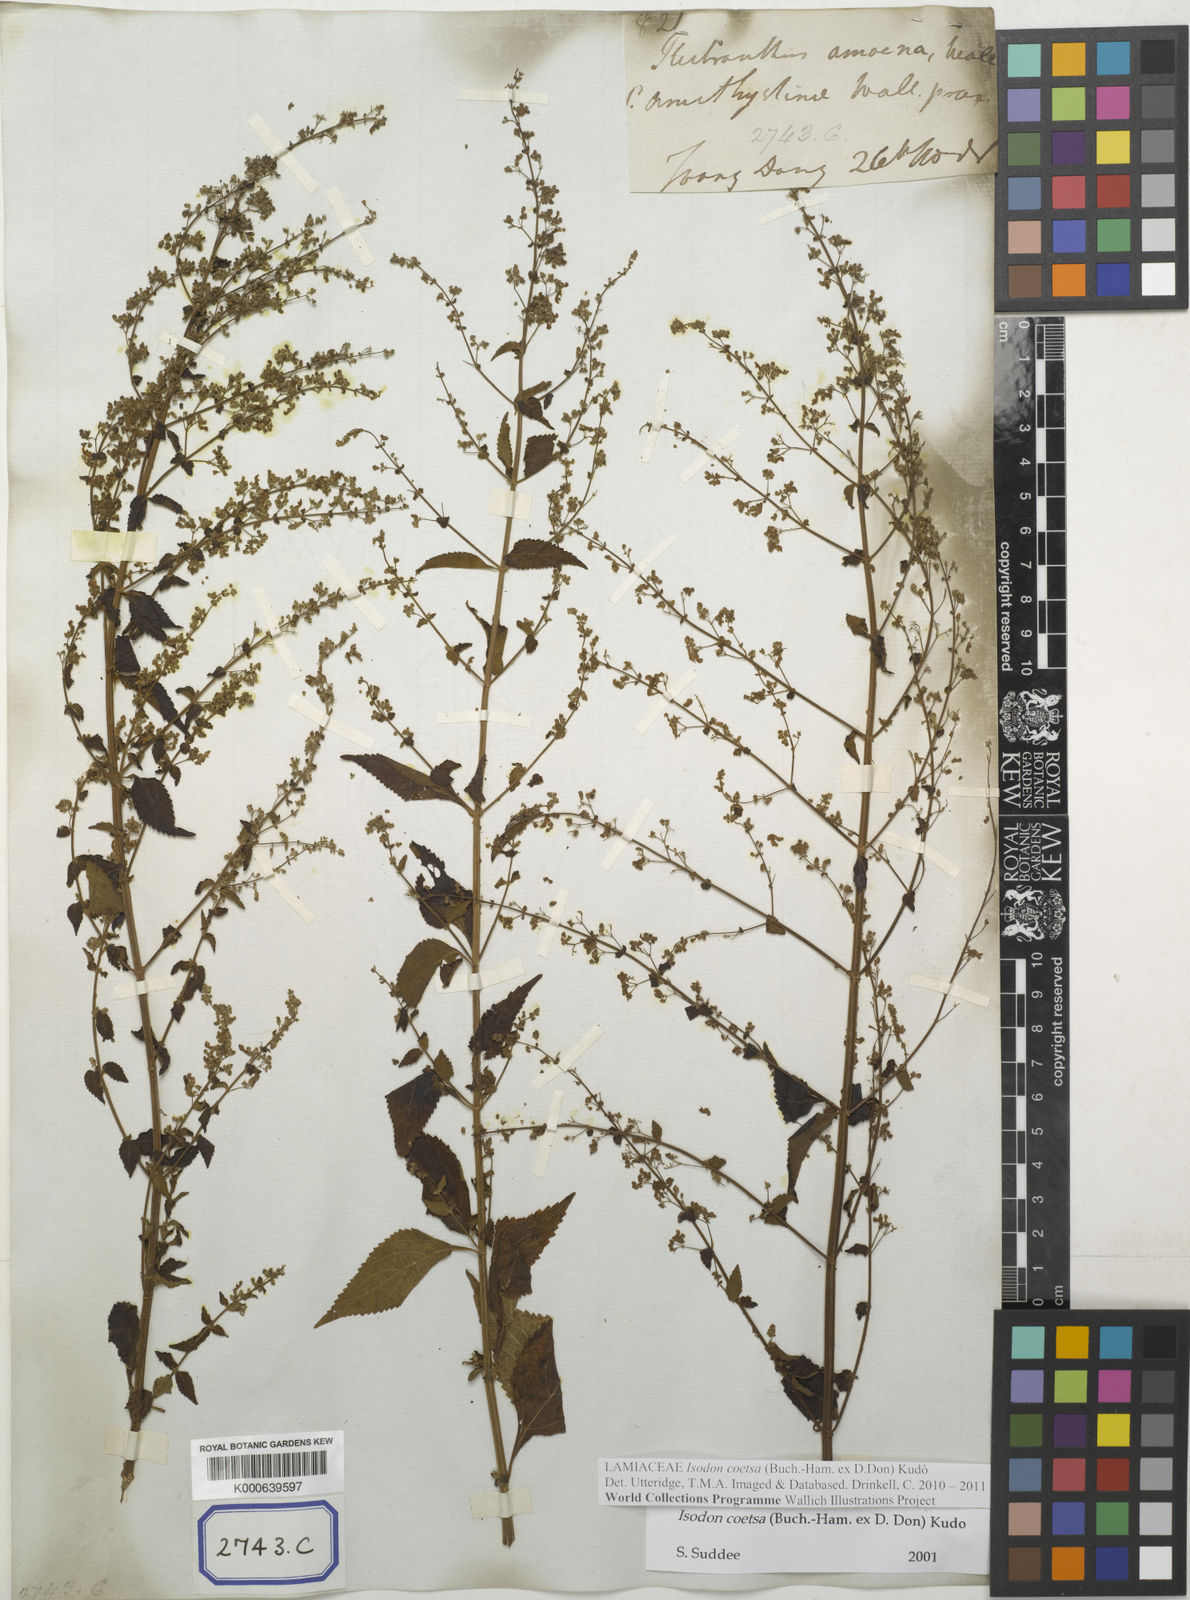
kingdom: Plantae
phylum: Tracheophyta
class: Magnoliopsida
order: Lamiales
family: Lamiaceae
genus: Plectranthus
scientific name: Plectranthus
